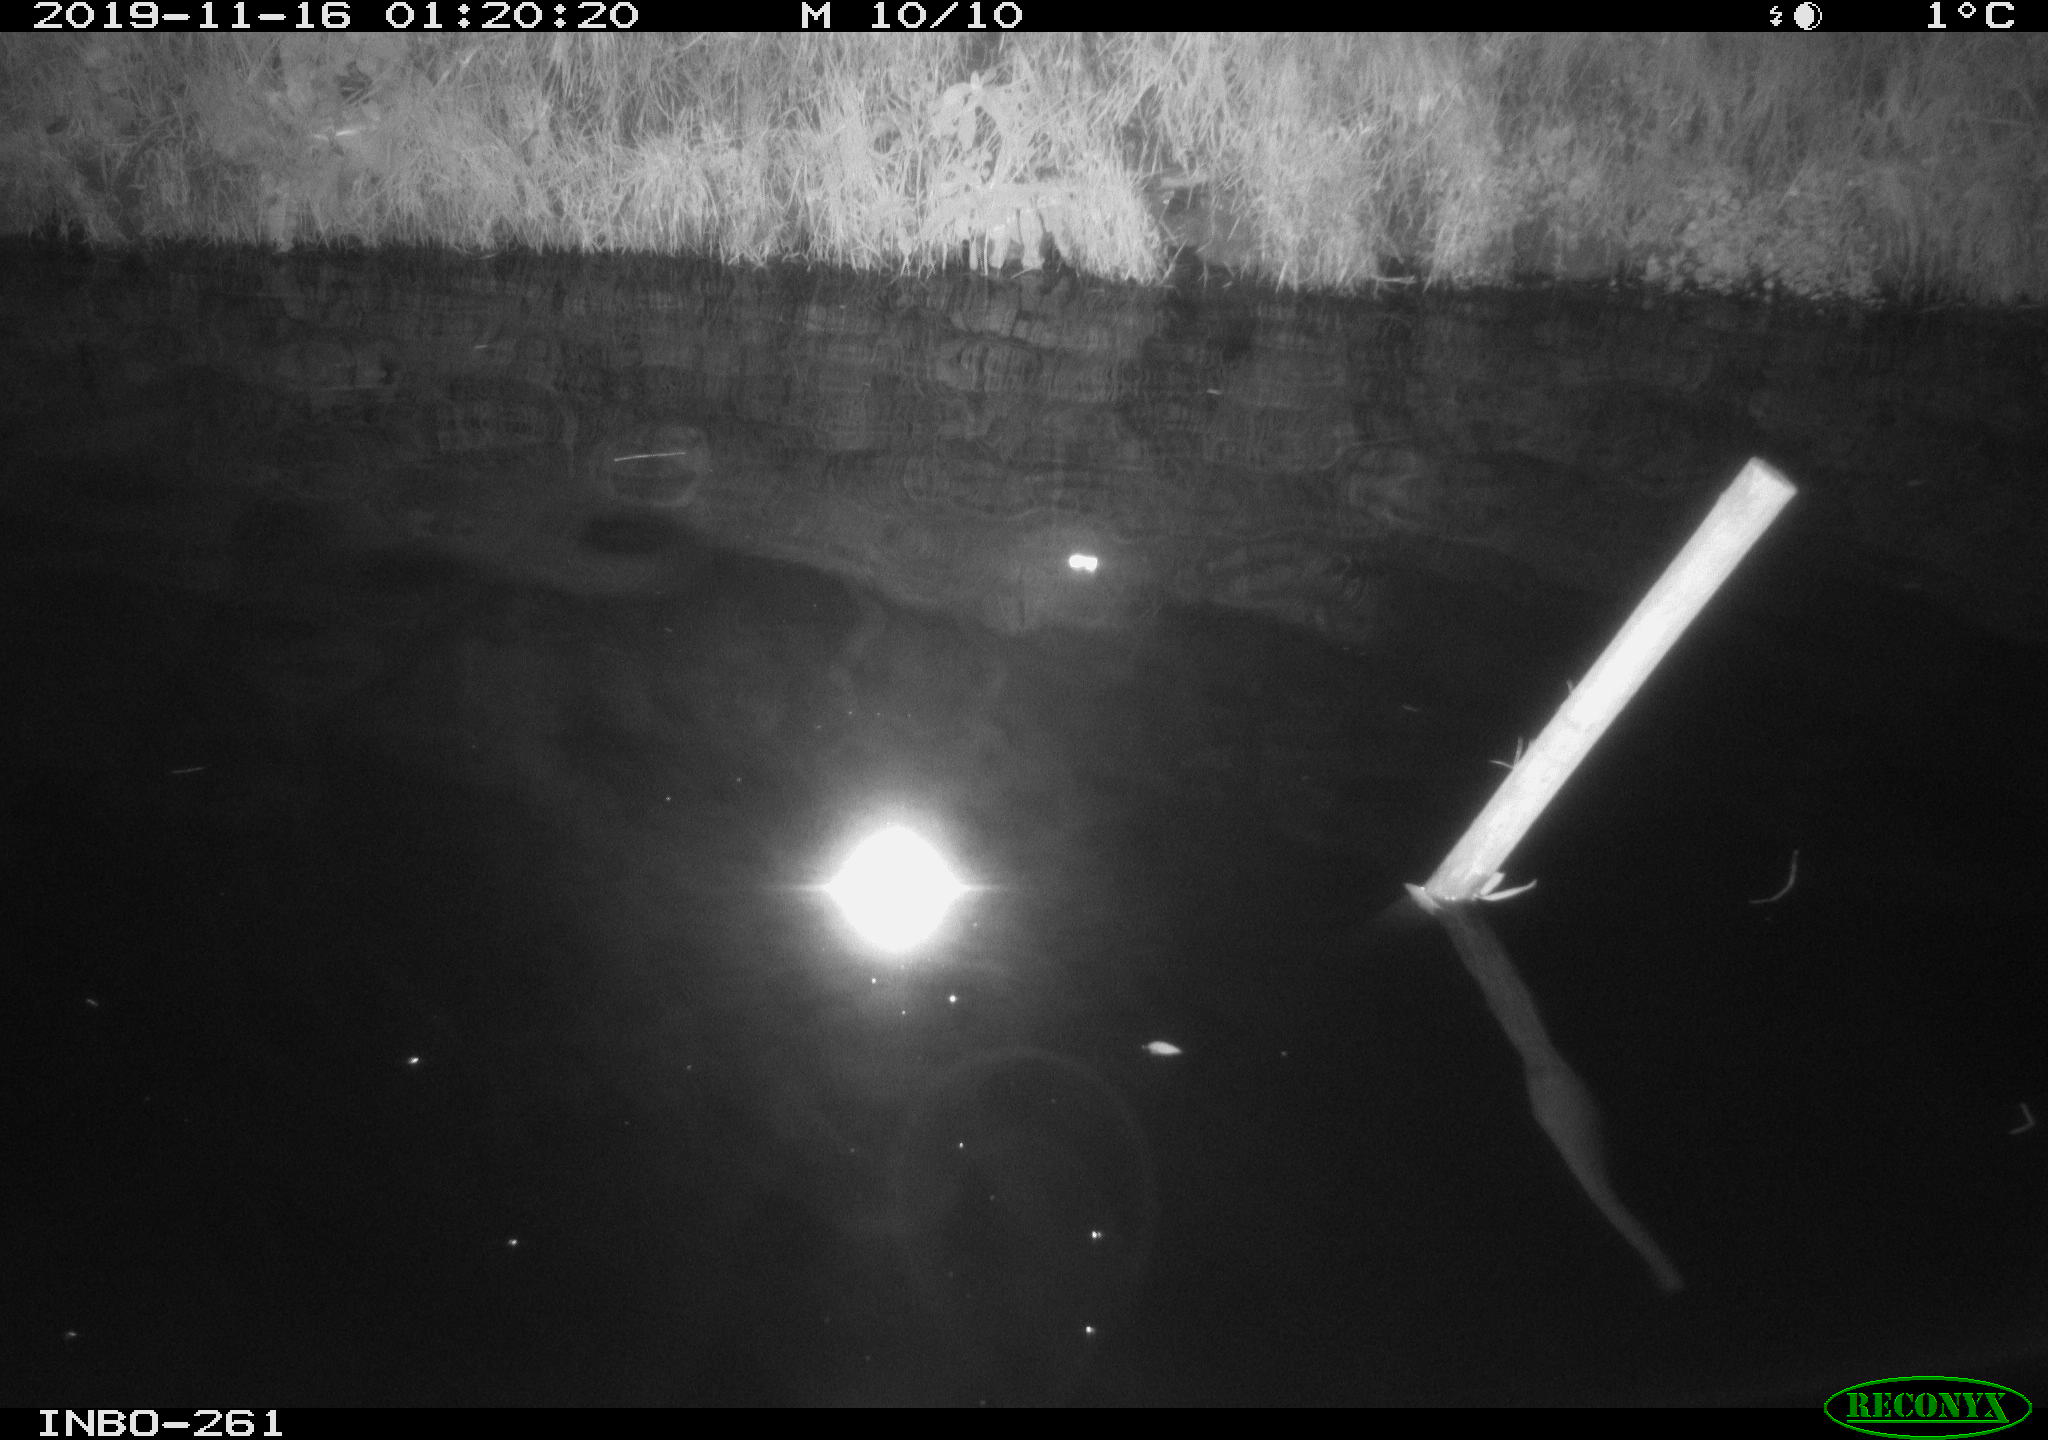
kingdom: Animalia
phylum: Chordata
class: Aves
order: Anseriformes
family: Anatidae
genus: Anas
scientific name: Anas platyrhynchos
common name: Mallard
